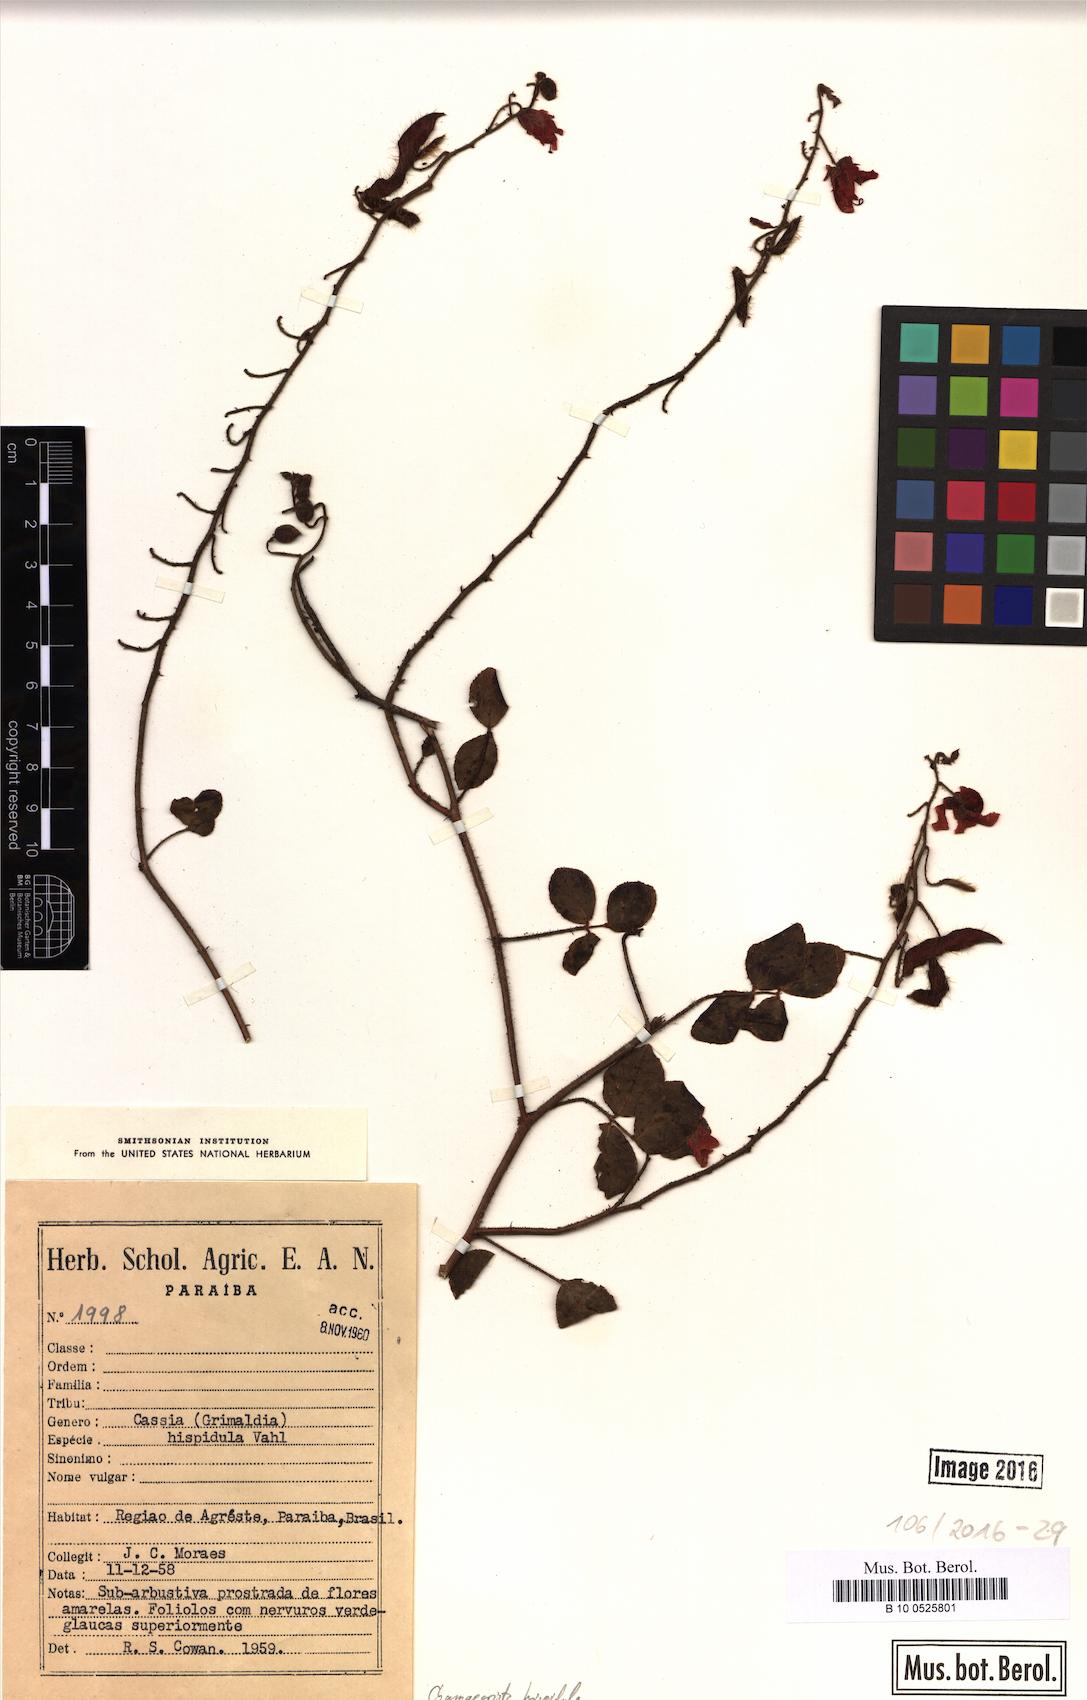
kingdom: Plantae
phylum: Tracheophyta
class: Magnoliopsida
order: Fabales
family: Fabaceae
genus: Chamaecrista
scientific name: Chamaecrista hispidula
